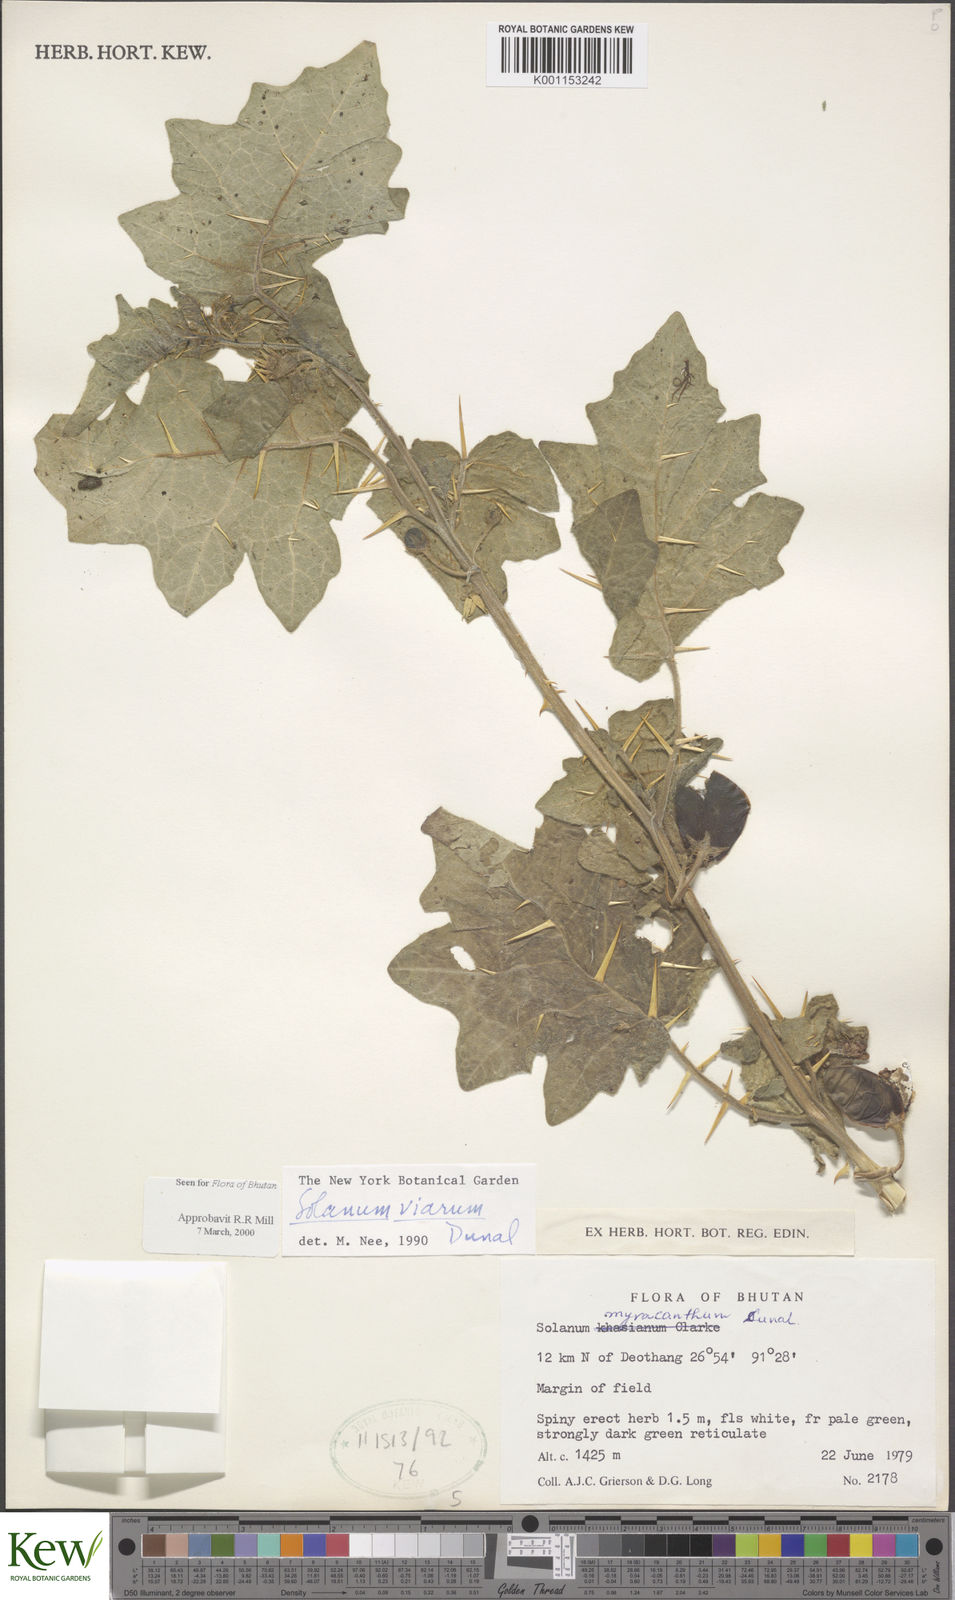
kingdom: Plantae
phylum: Tracheophyta
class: Magnoliopsida
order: Solanales
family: Solanaceae
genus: Solanum
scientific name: Solanum viarum
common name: Tropical soda apple
